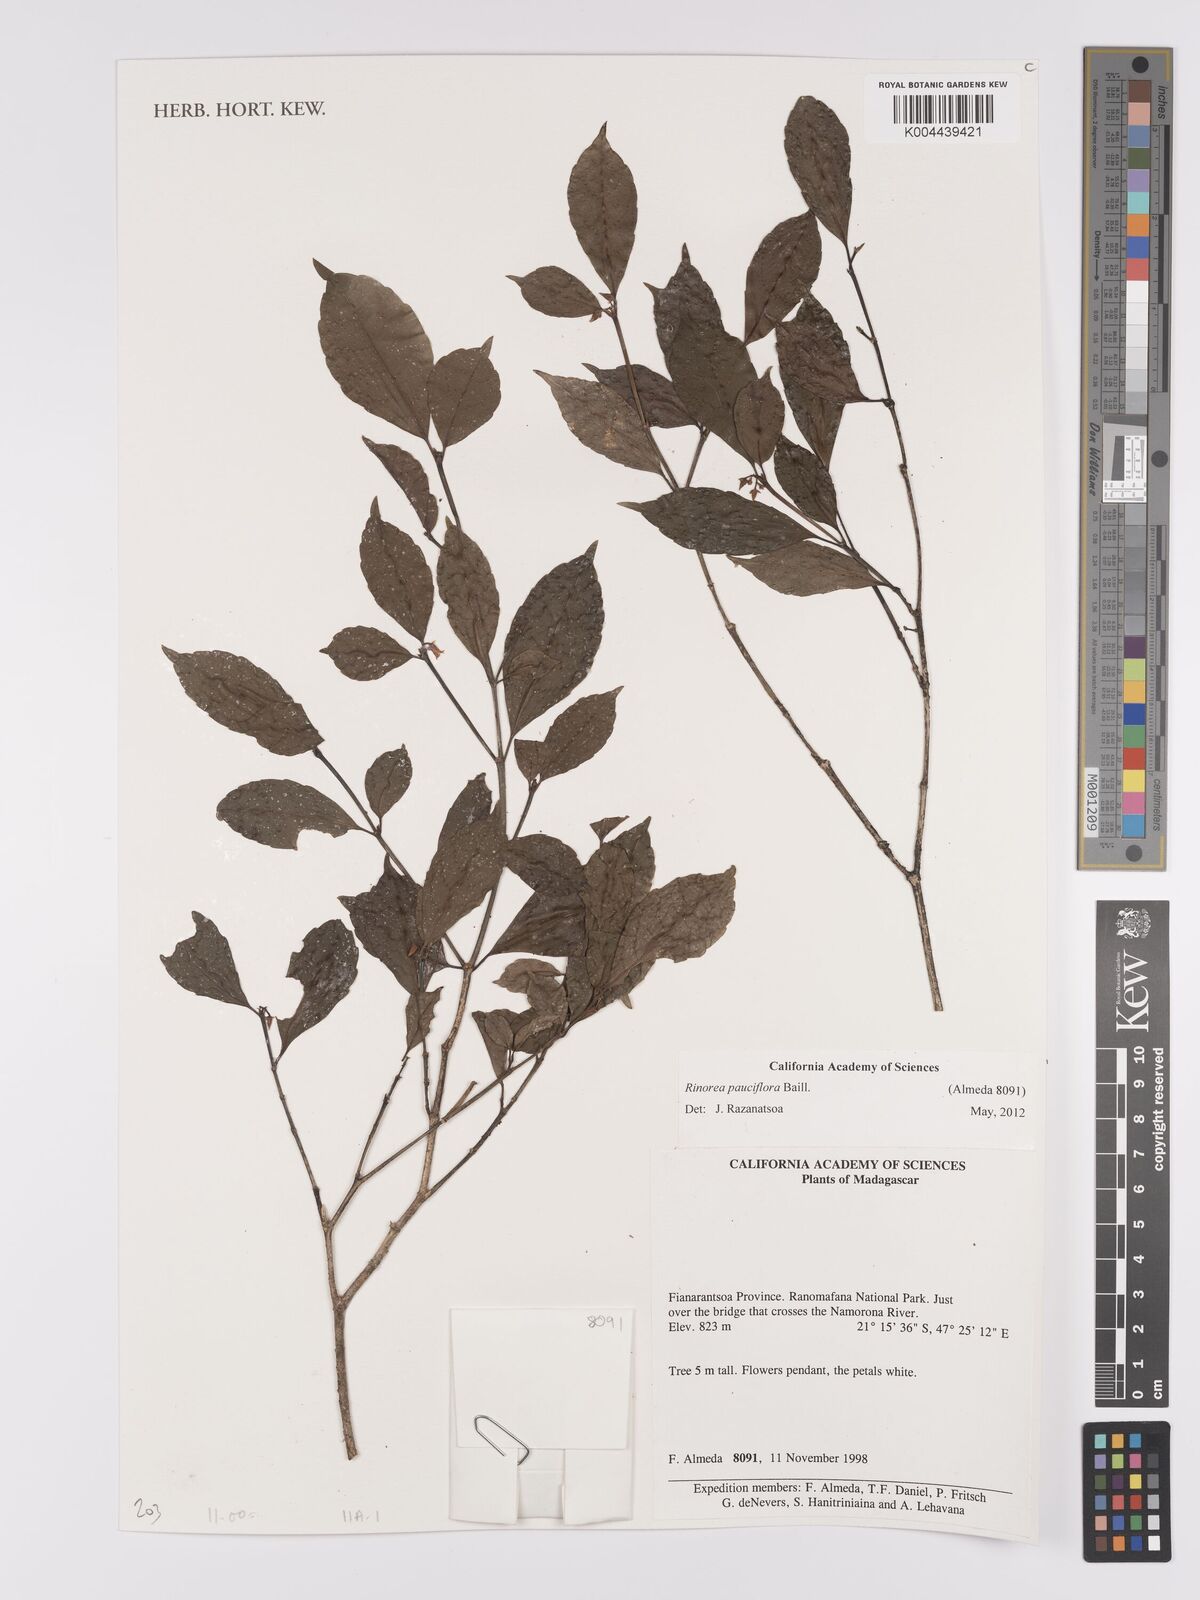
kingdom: Plantae
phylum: Tracheophyta
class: Magnoliopsida
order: Malpighiales
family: Violaceae
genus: Rinorea
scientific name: Rinorea pauciflora
